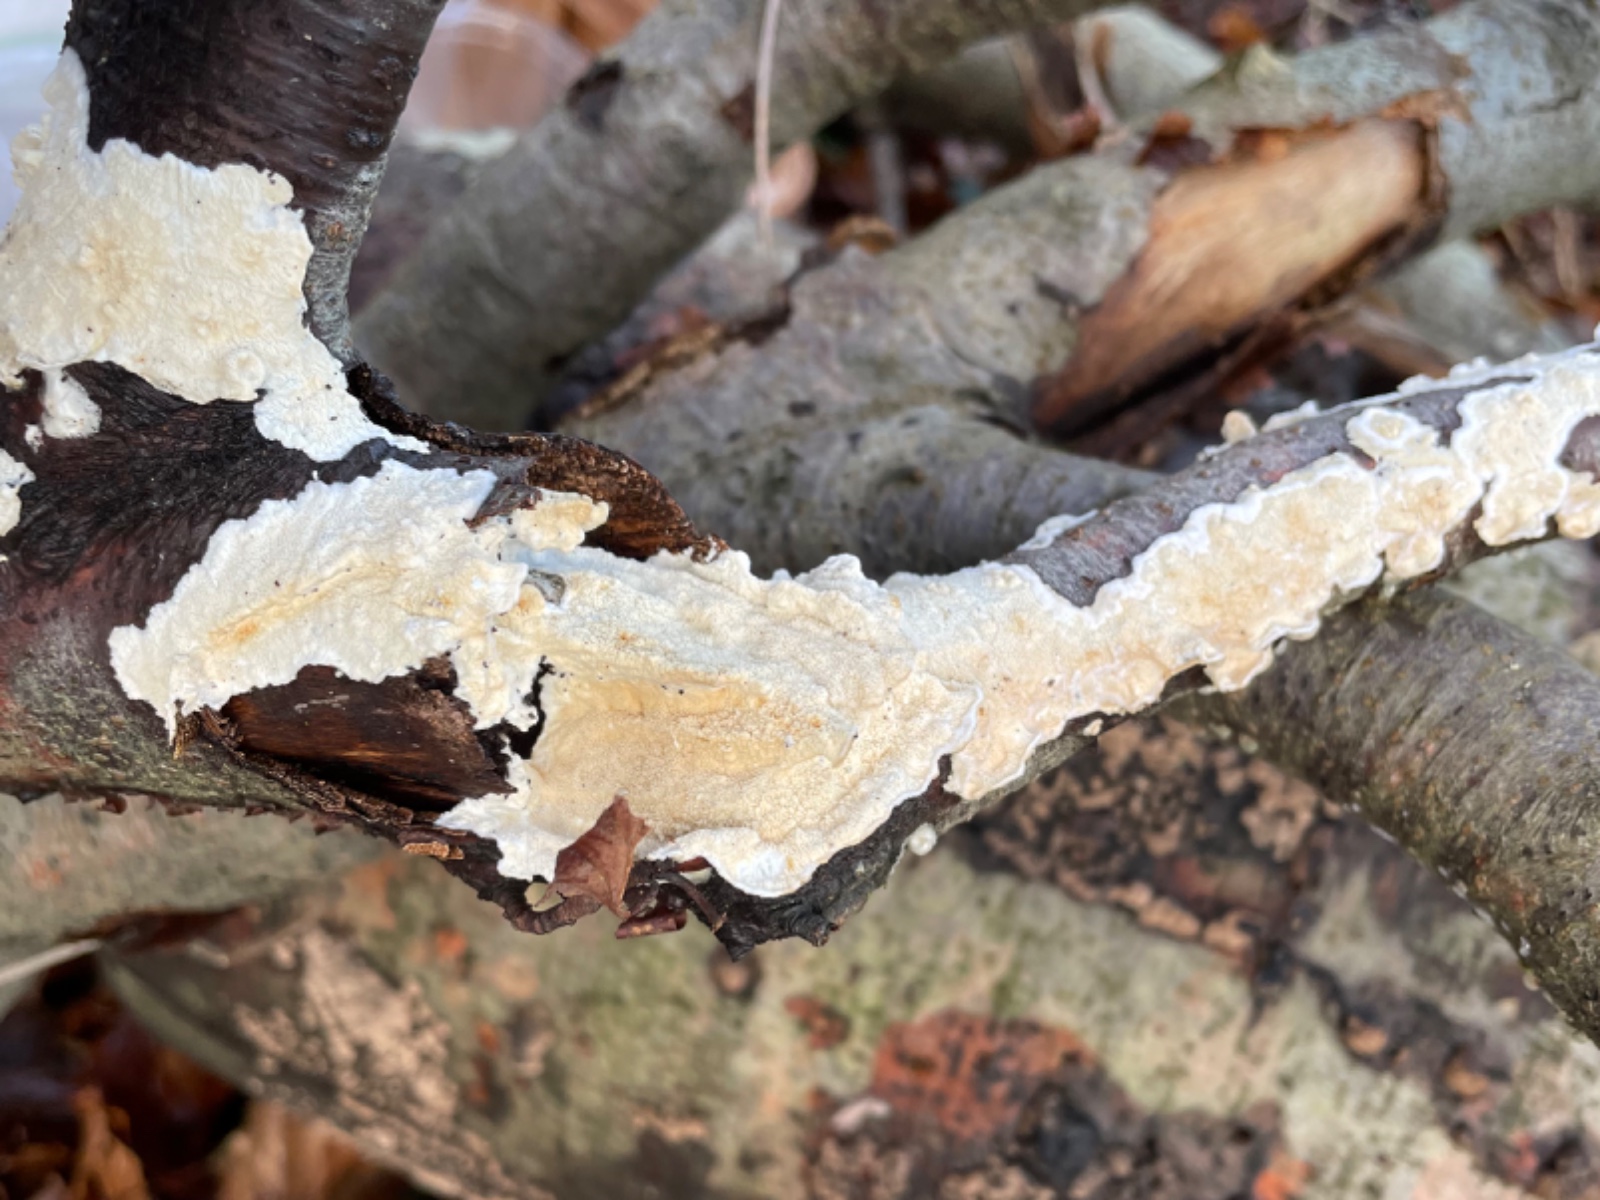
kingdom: Fungi
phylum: Basidiomycota
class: Agaricomycetes
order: Polyporales
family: Irpicaceae
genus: Byssomerulius
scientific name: Byssomerulius corium
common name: læder-åresvamp
